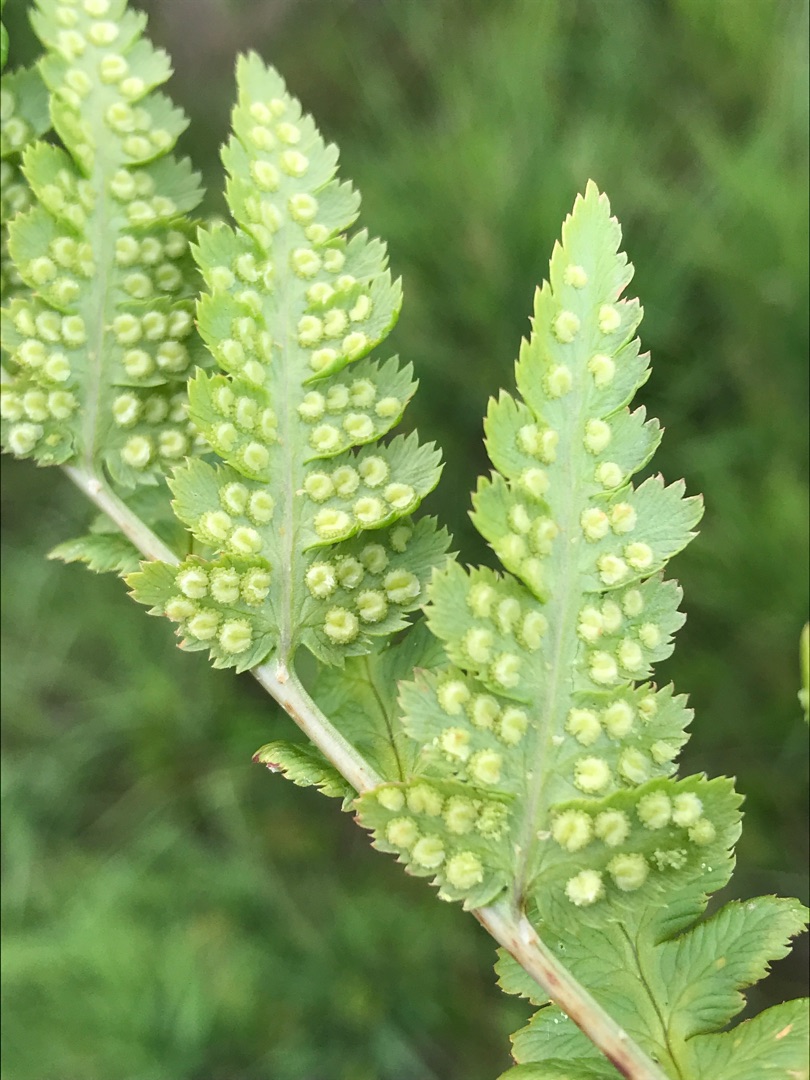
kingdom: Plantae
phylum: Tracheophyta
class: Polypodiopsida
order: Polypodiales
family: Dryopteridaceae
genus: Dryopteris
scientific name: Dryopteris cristata
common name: Butfinnet mangeløv
